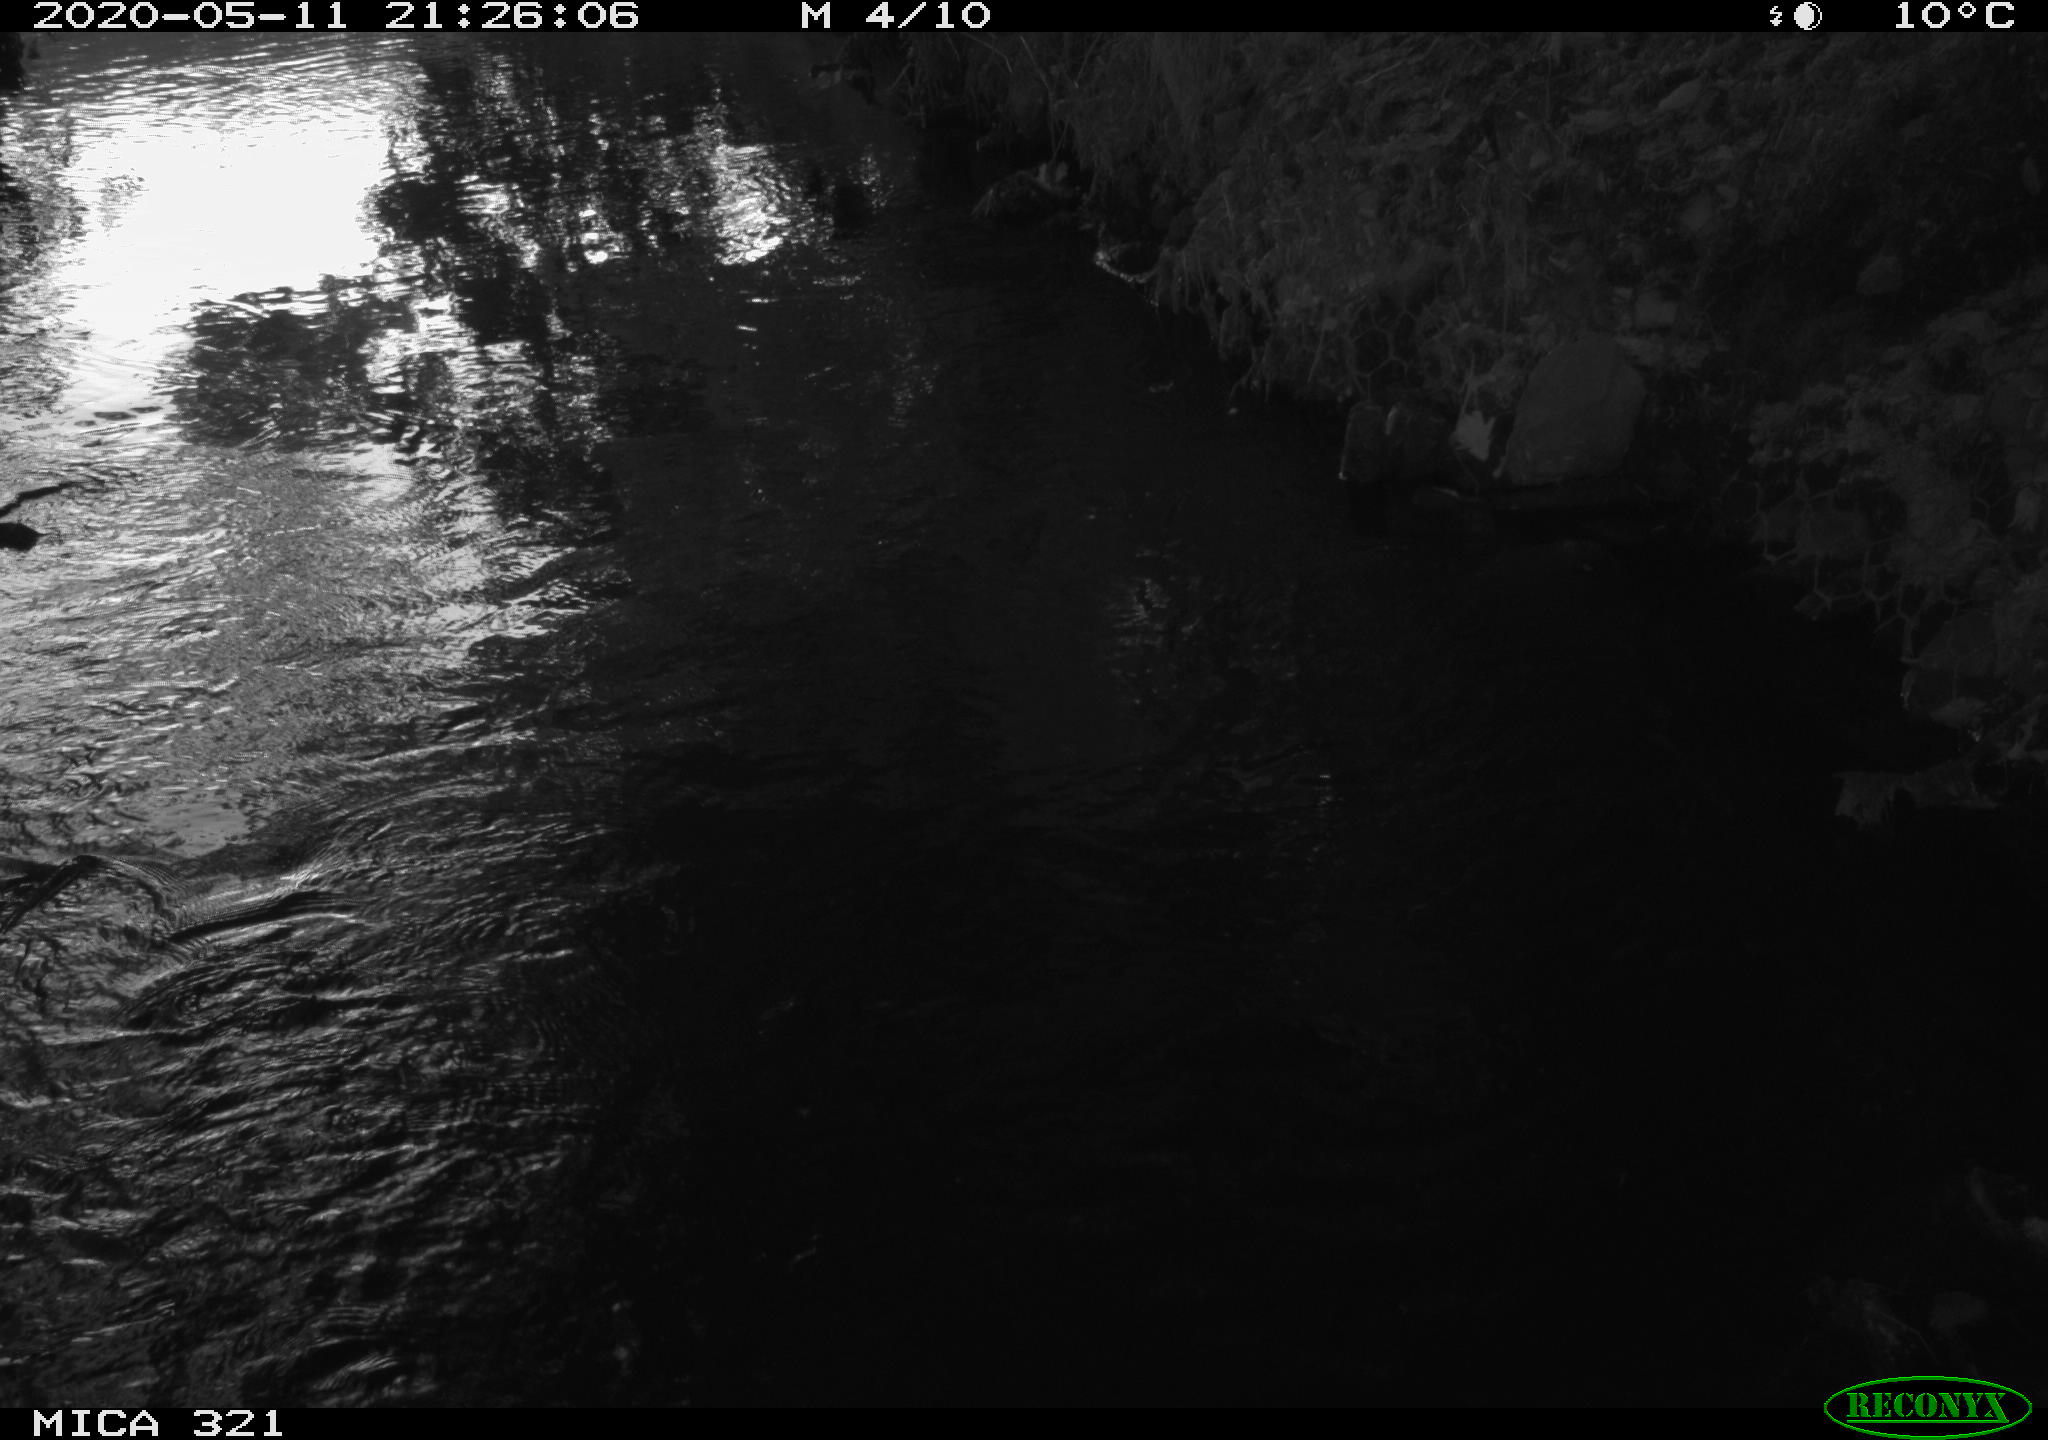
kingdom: Animalia
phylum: Chordata
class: Aves
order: Anseriformes
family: Anatidae
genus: Anas
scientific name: Anas platyrhynchos
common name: Mallard
